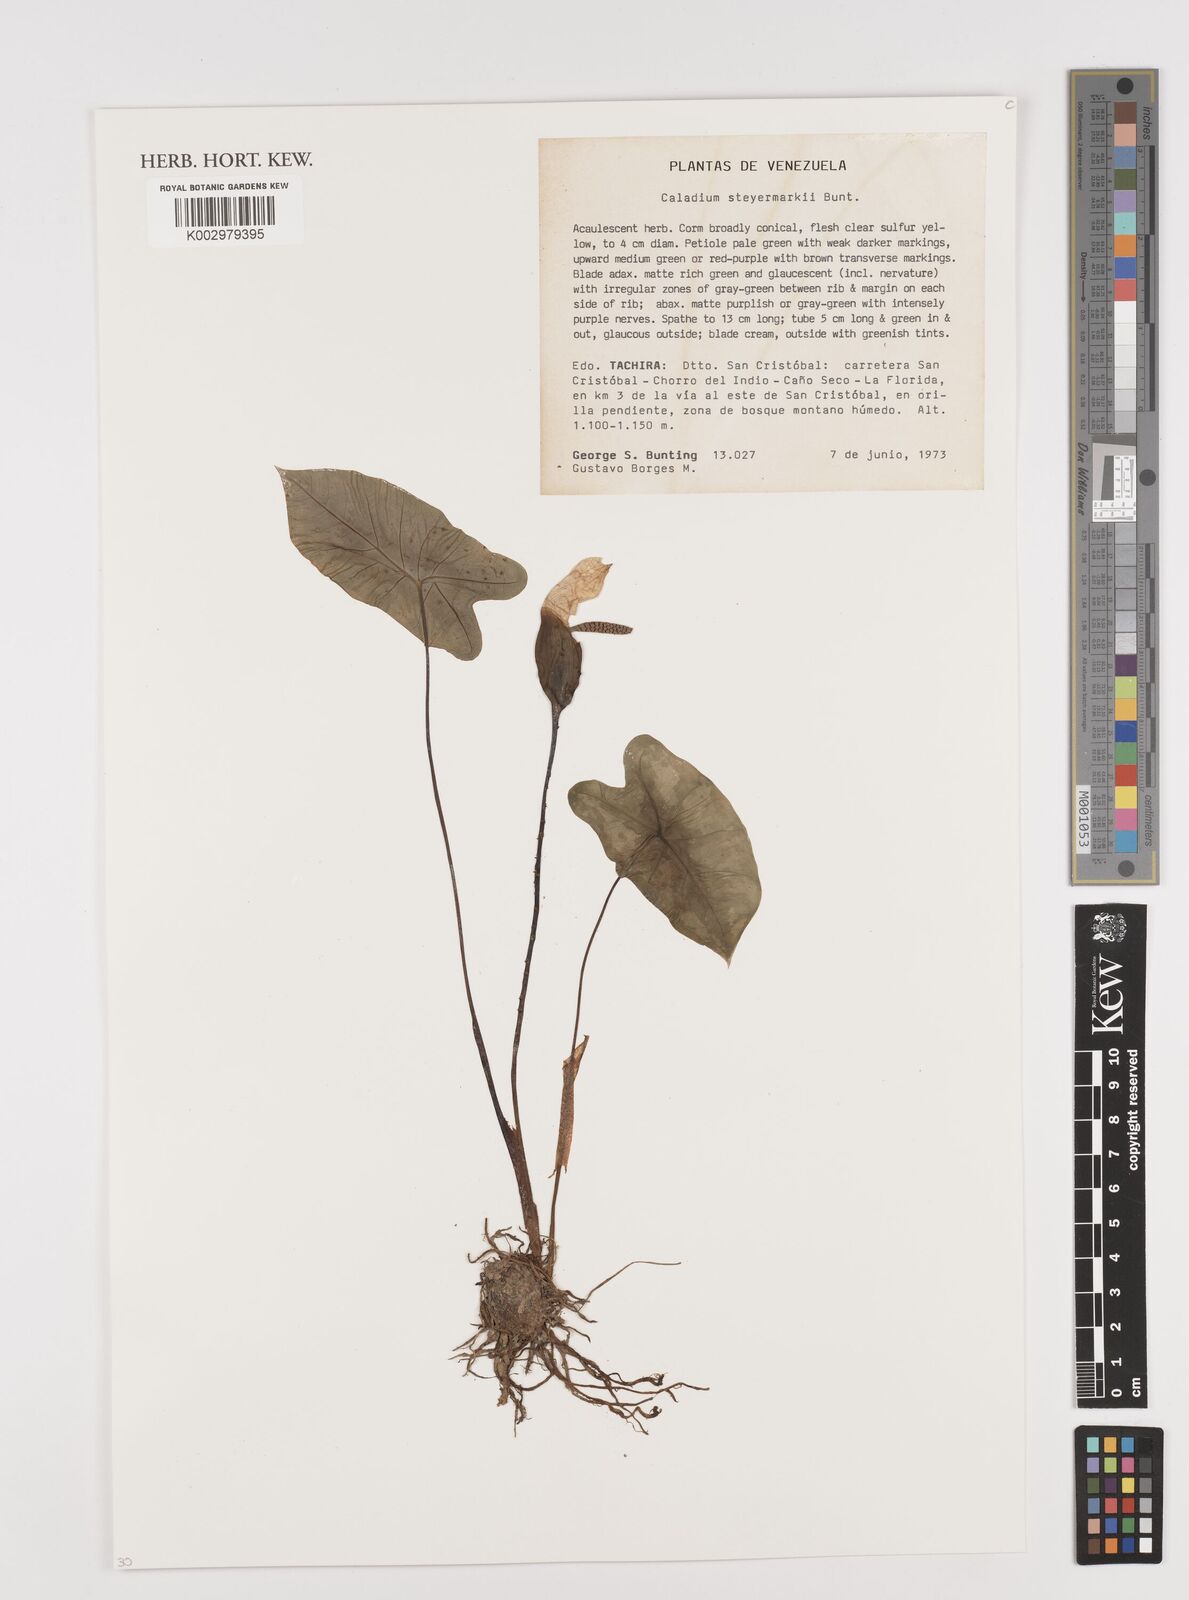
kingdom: Plantae
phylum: Tracheophyta
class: Liliopsida
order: Alismatales
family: Araceae
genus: Caladium
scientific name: Caladium steyermarkii
